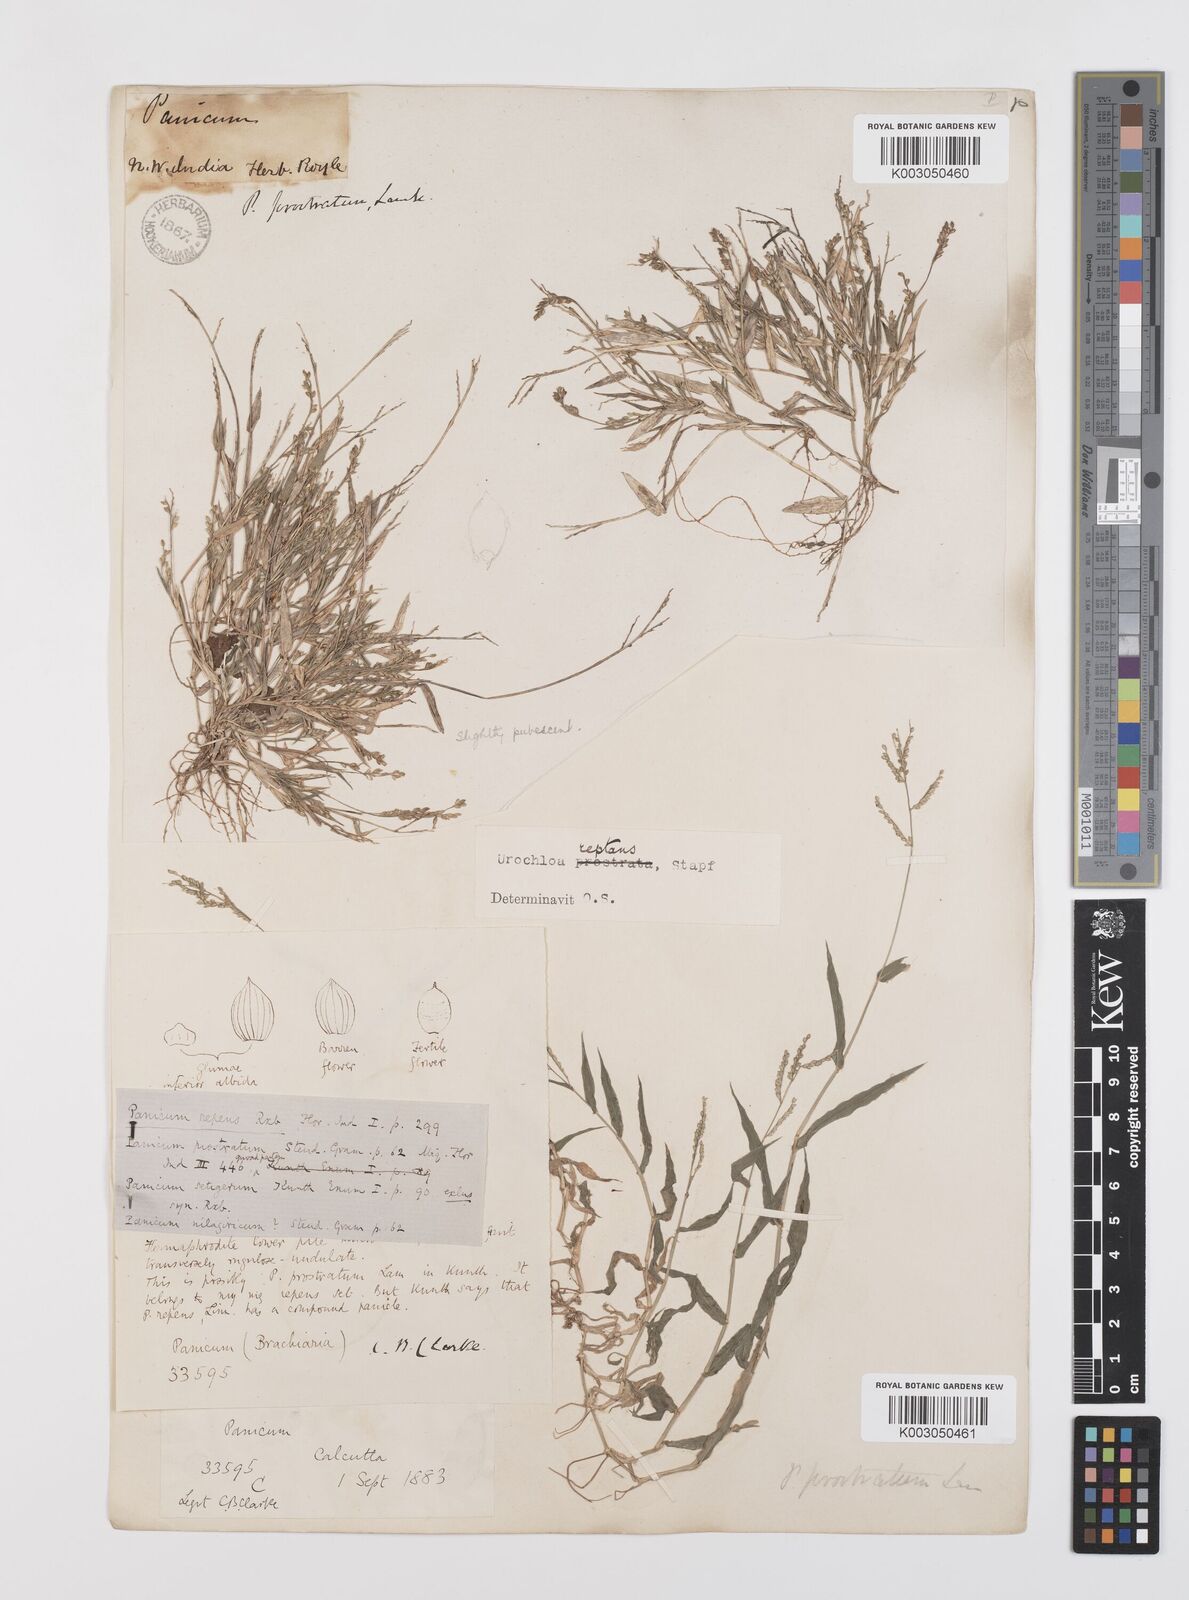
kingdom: Plantae
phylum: Tracheophyta
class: Liliopsida
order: Poales
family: Poaceae
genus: Urochloa
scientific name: Urochloa reptans
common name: Sprawling signalgrass
